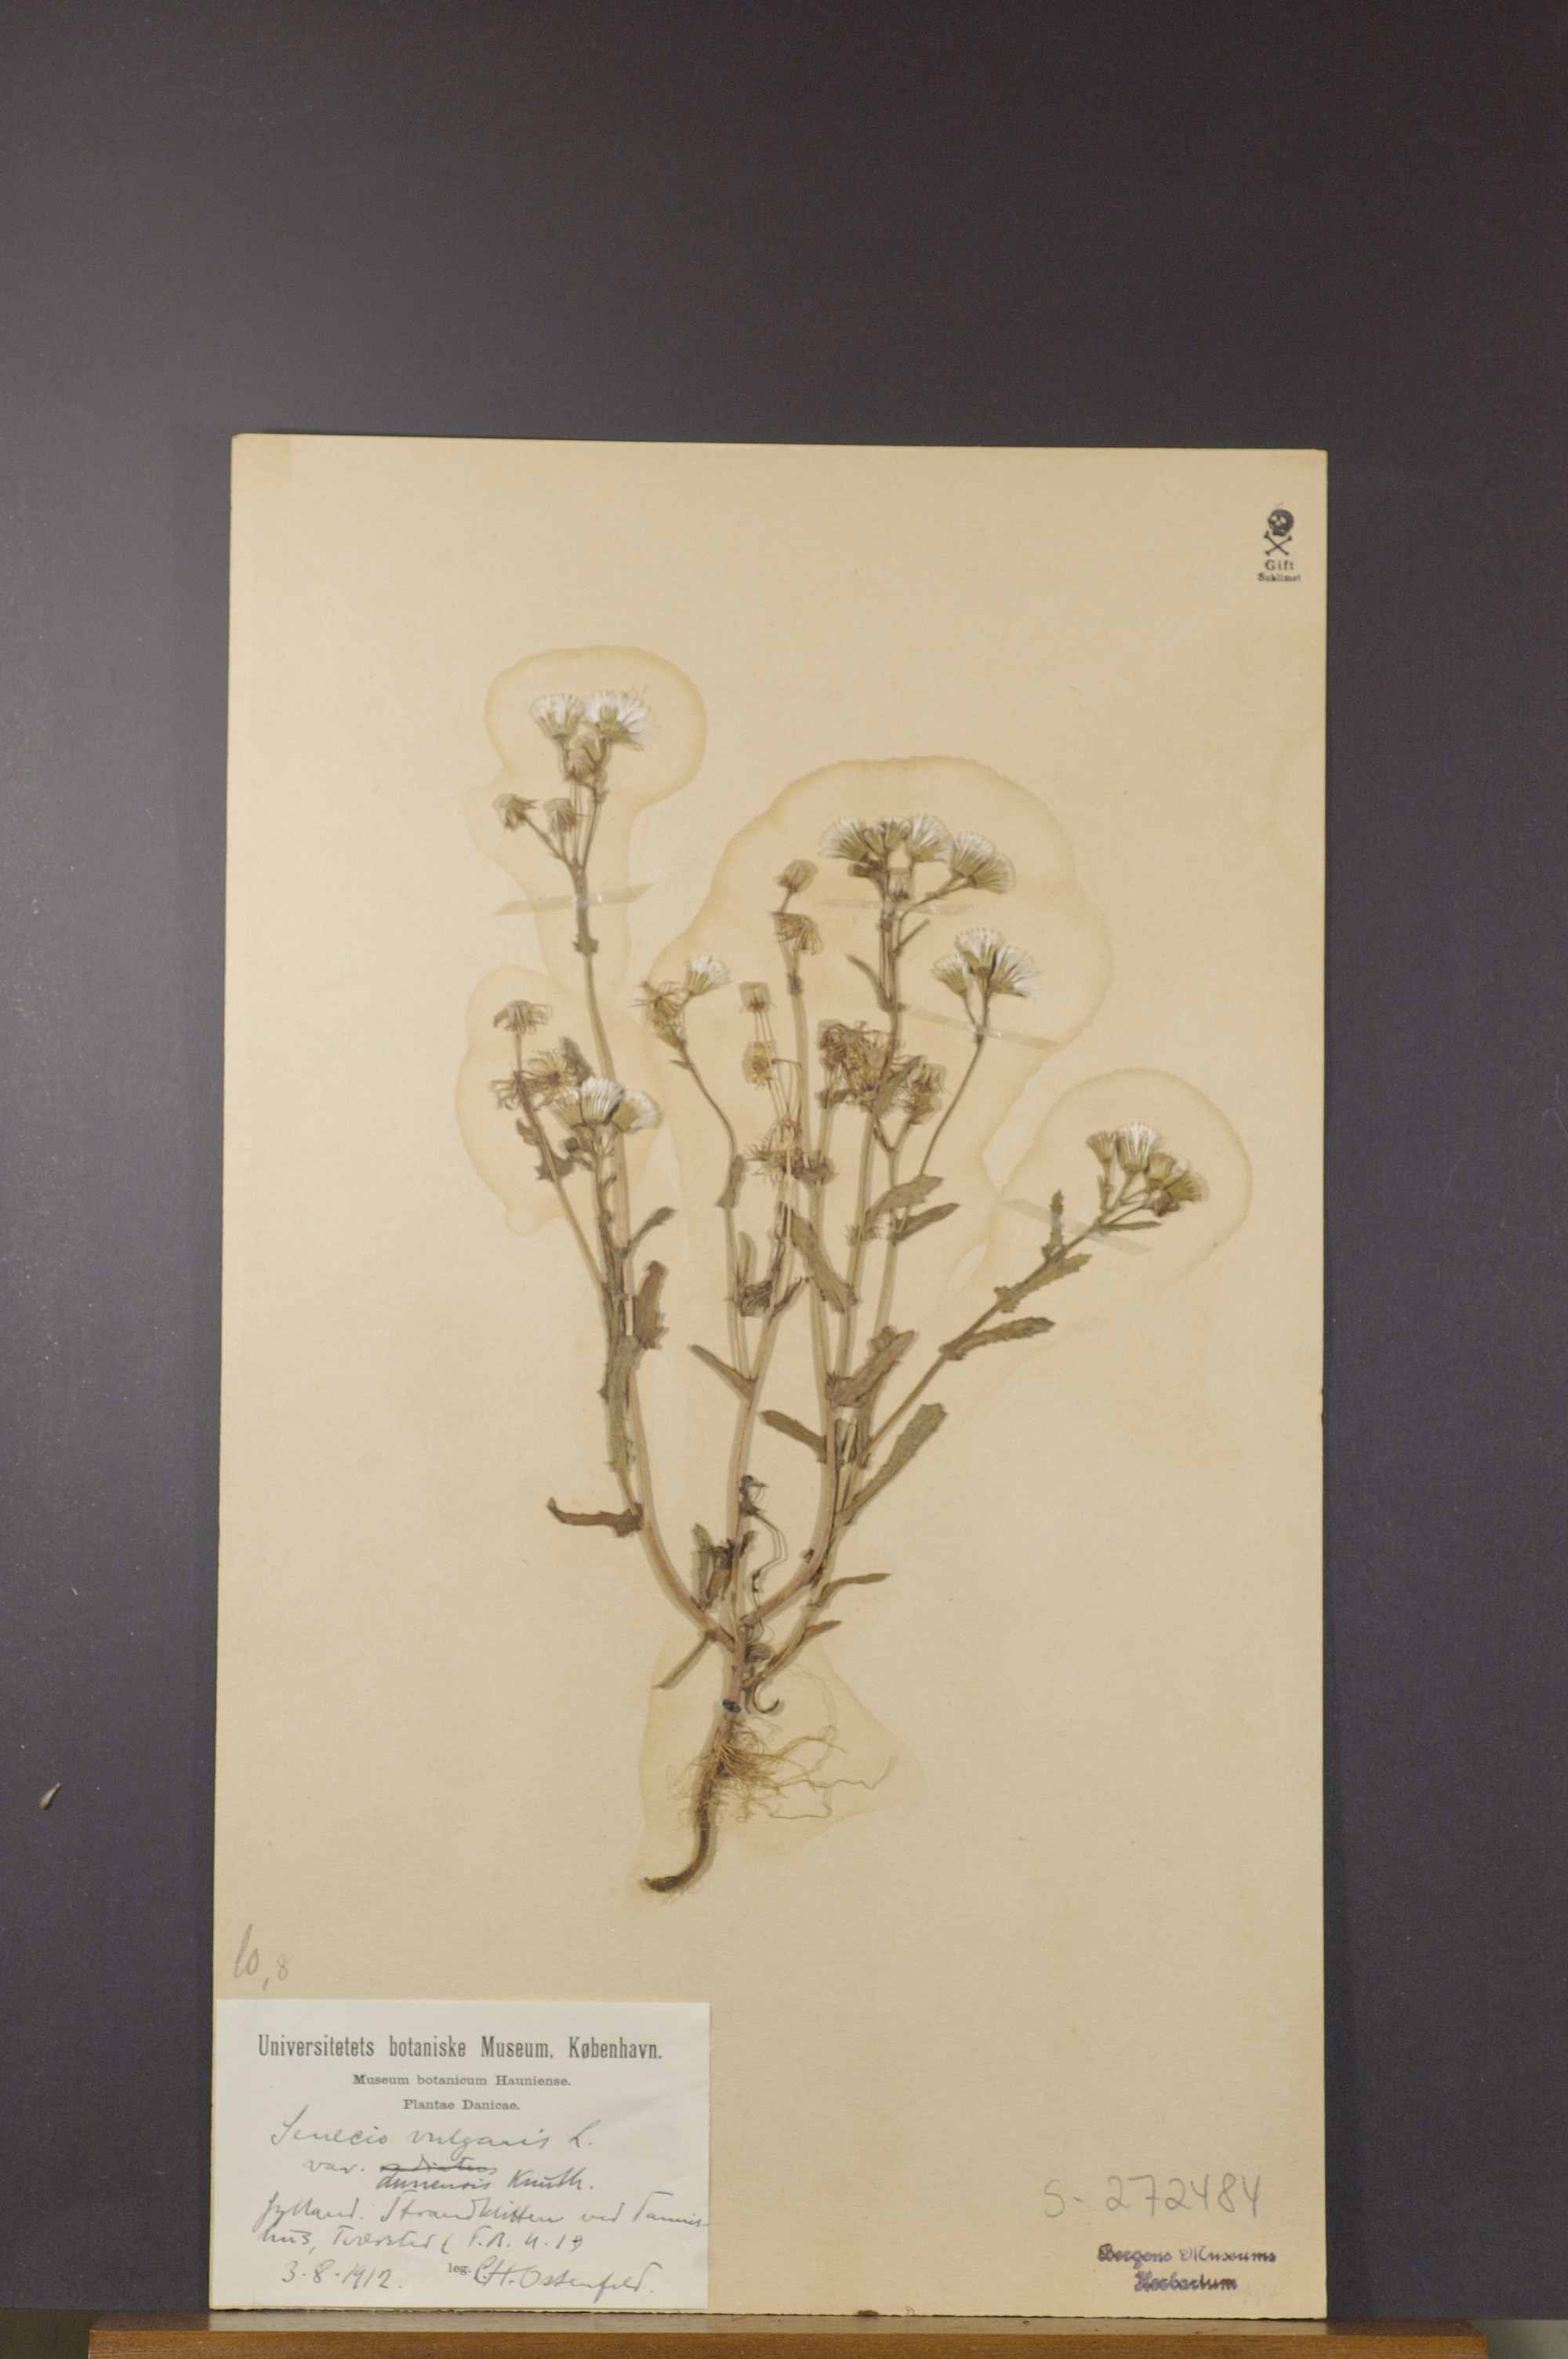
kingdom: Plantae
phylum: Tracheophyta
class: Magnoliopsida
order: Asterales
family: Asteraceae
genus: Senecio
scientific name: Senecio vulgaris
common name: Old-man-in-the-spring
